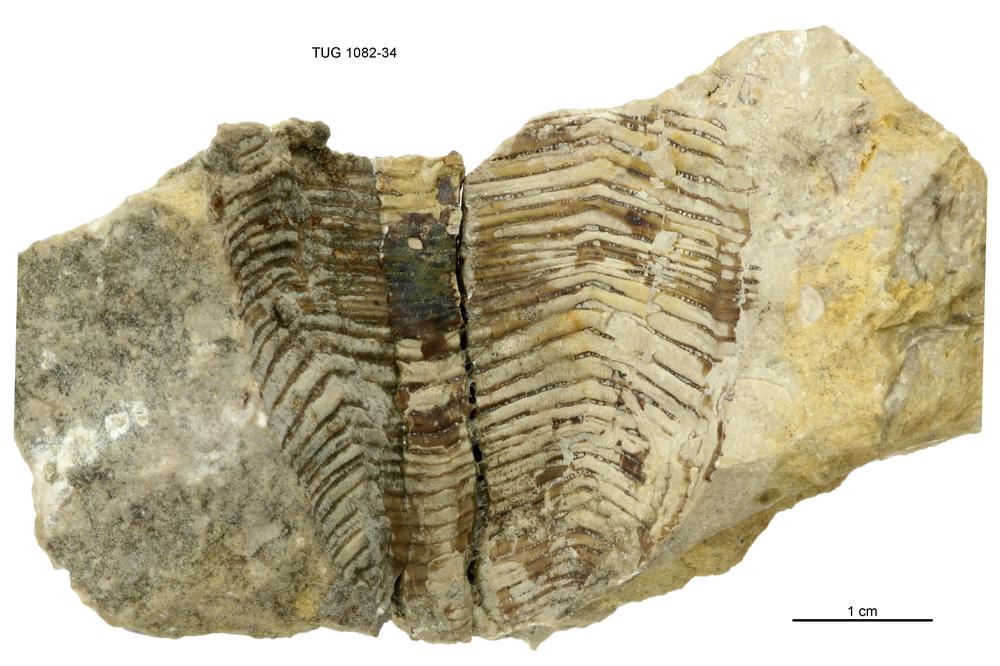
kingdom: Animalia
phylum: Cnidaria
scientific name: Cnidaria
